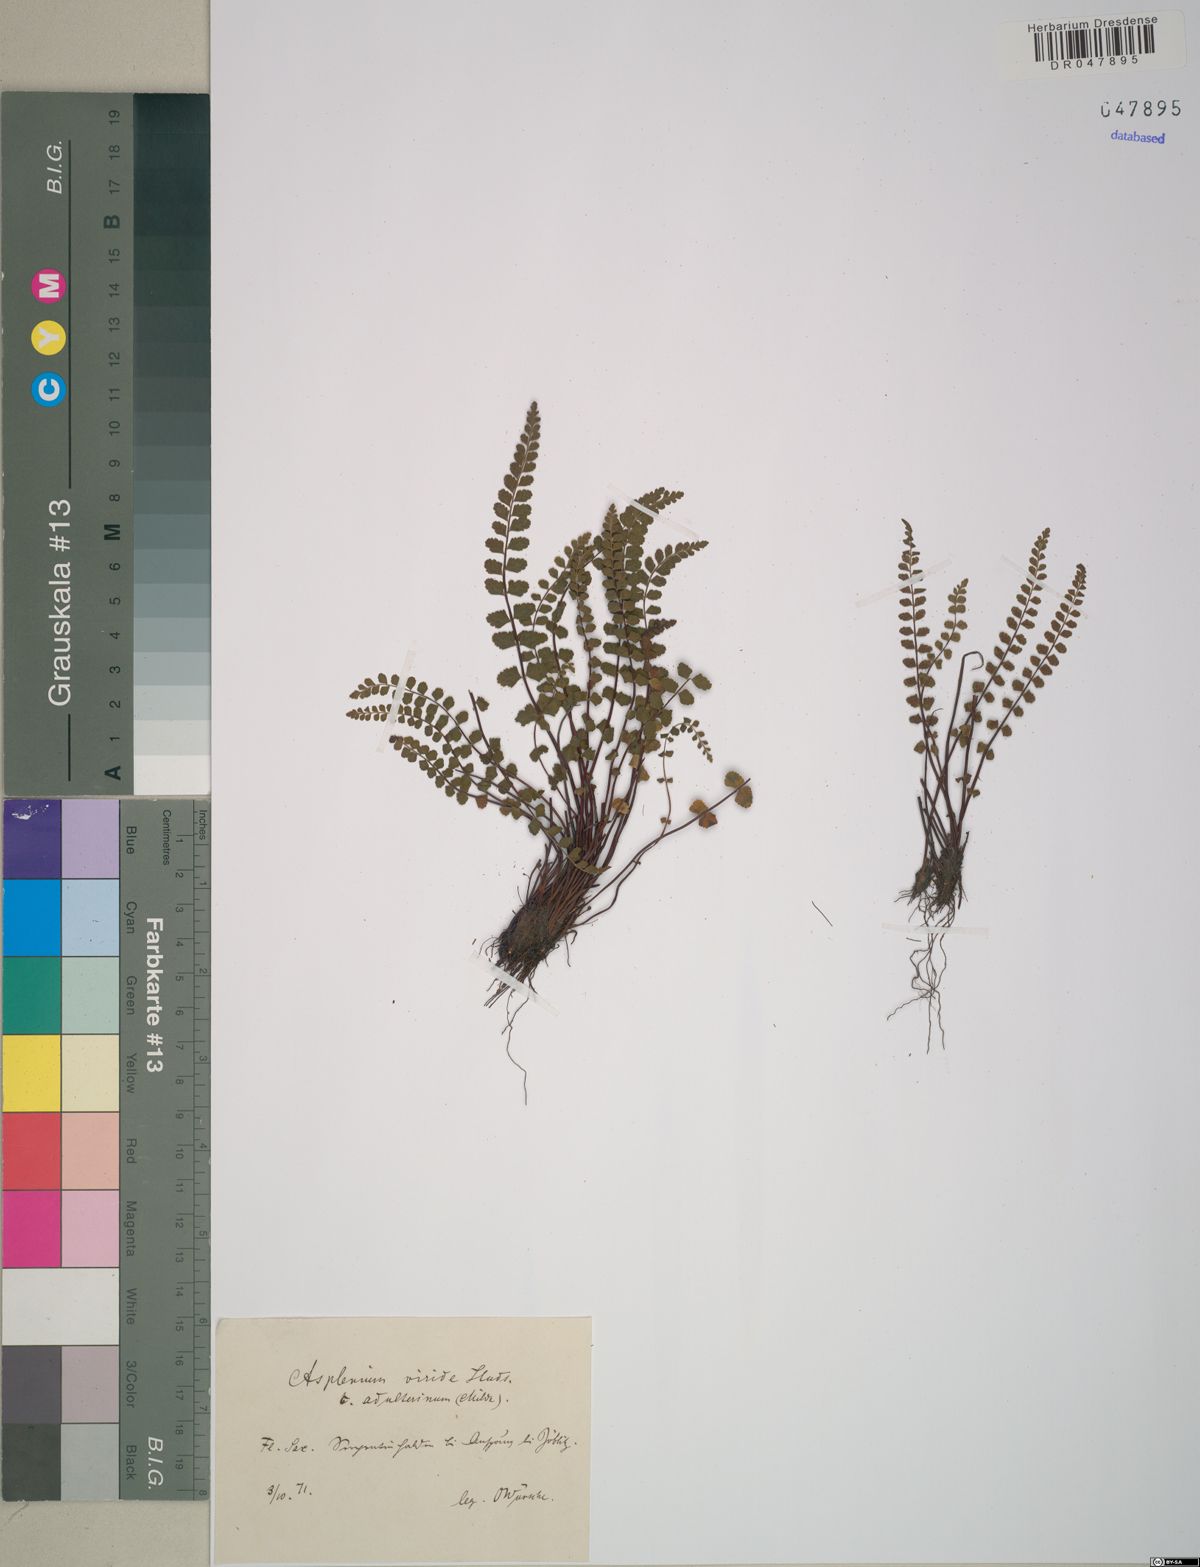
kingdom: Plantae
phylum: Tracheophyta
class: Polypodiopsida
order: Polypodiales
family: Aspleniaceae
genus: Asplenium
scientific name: Asplenium adulterinum
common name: Adulterated spleenwort
